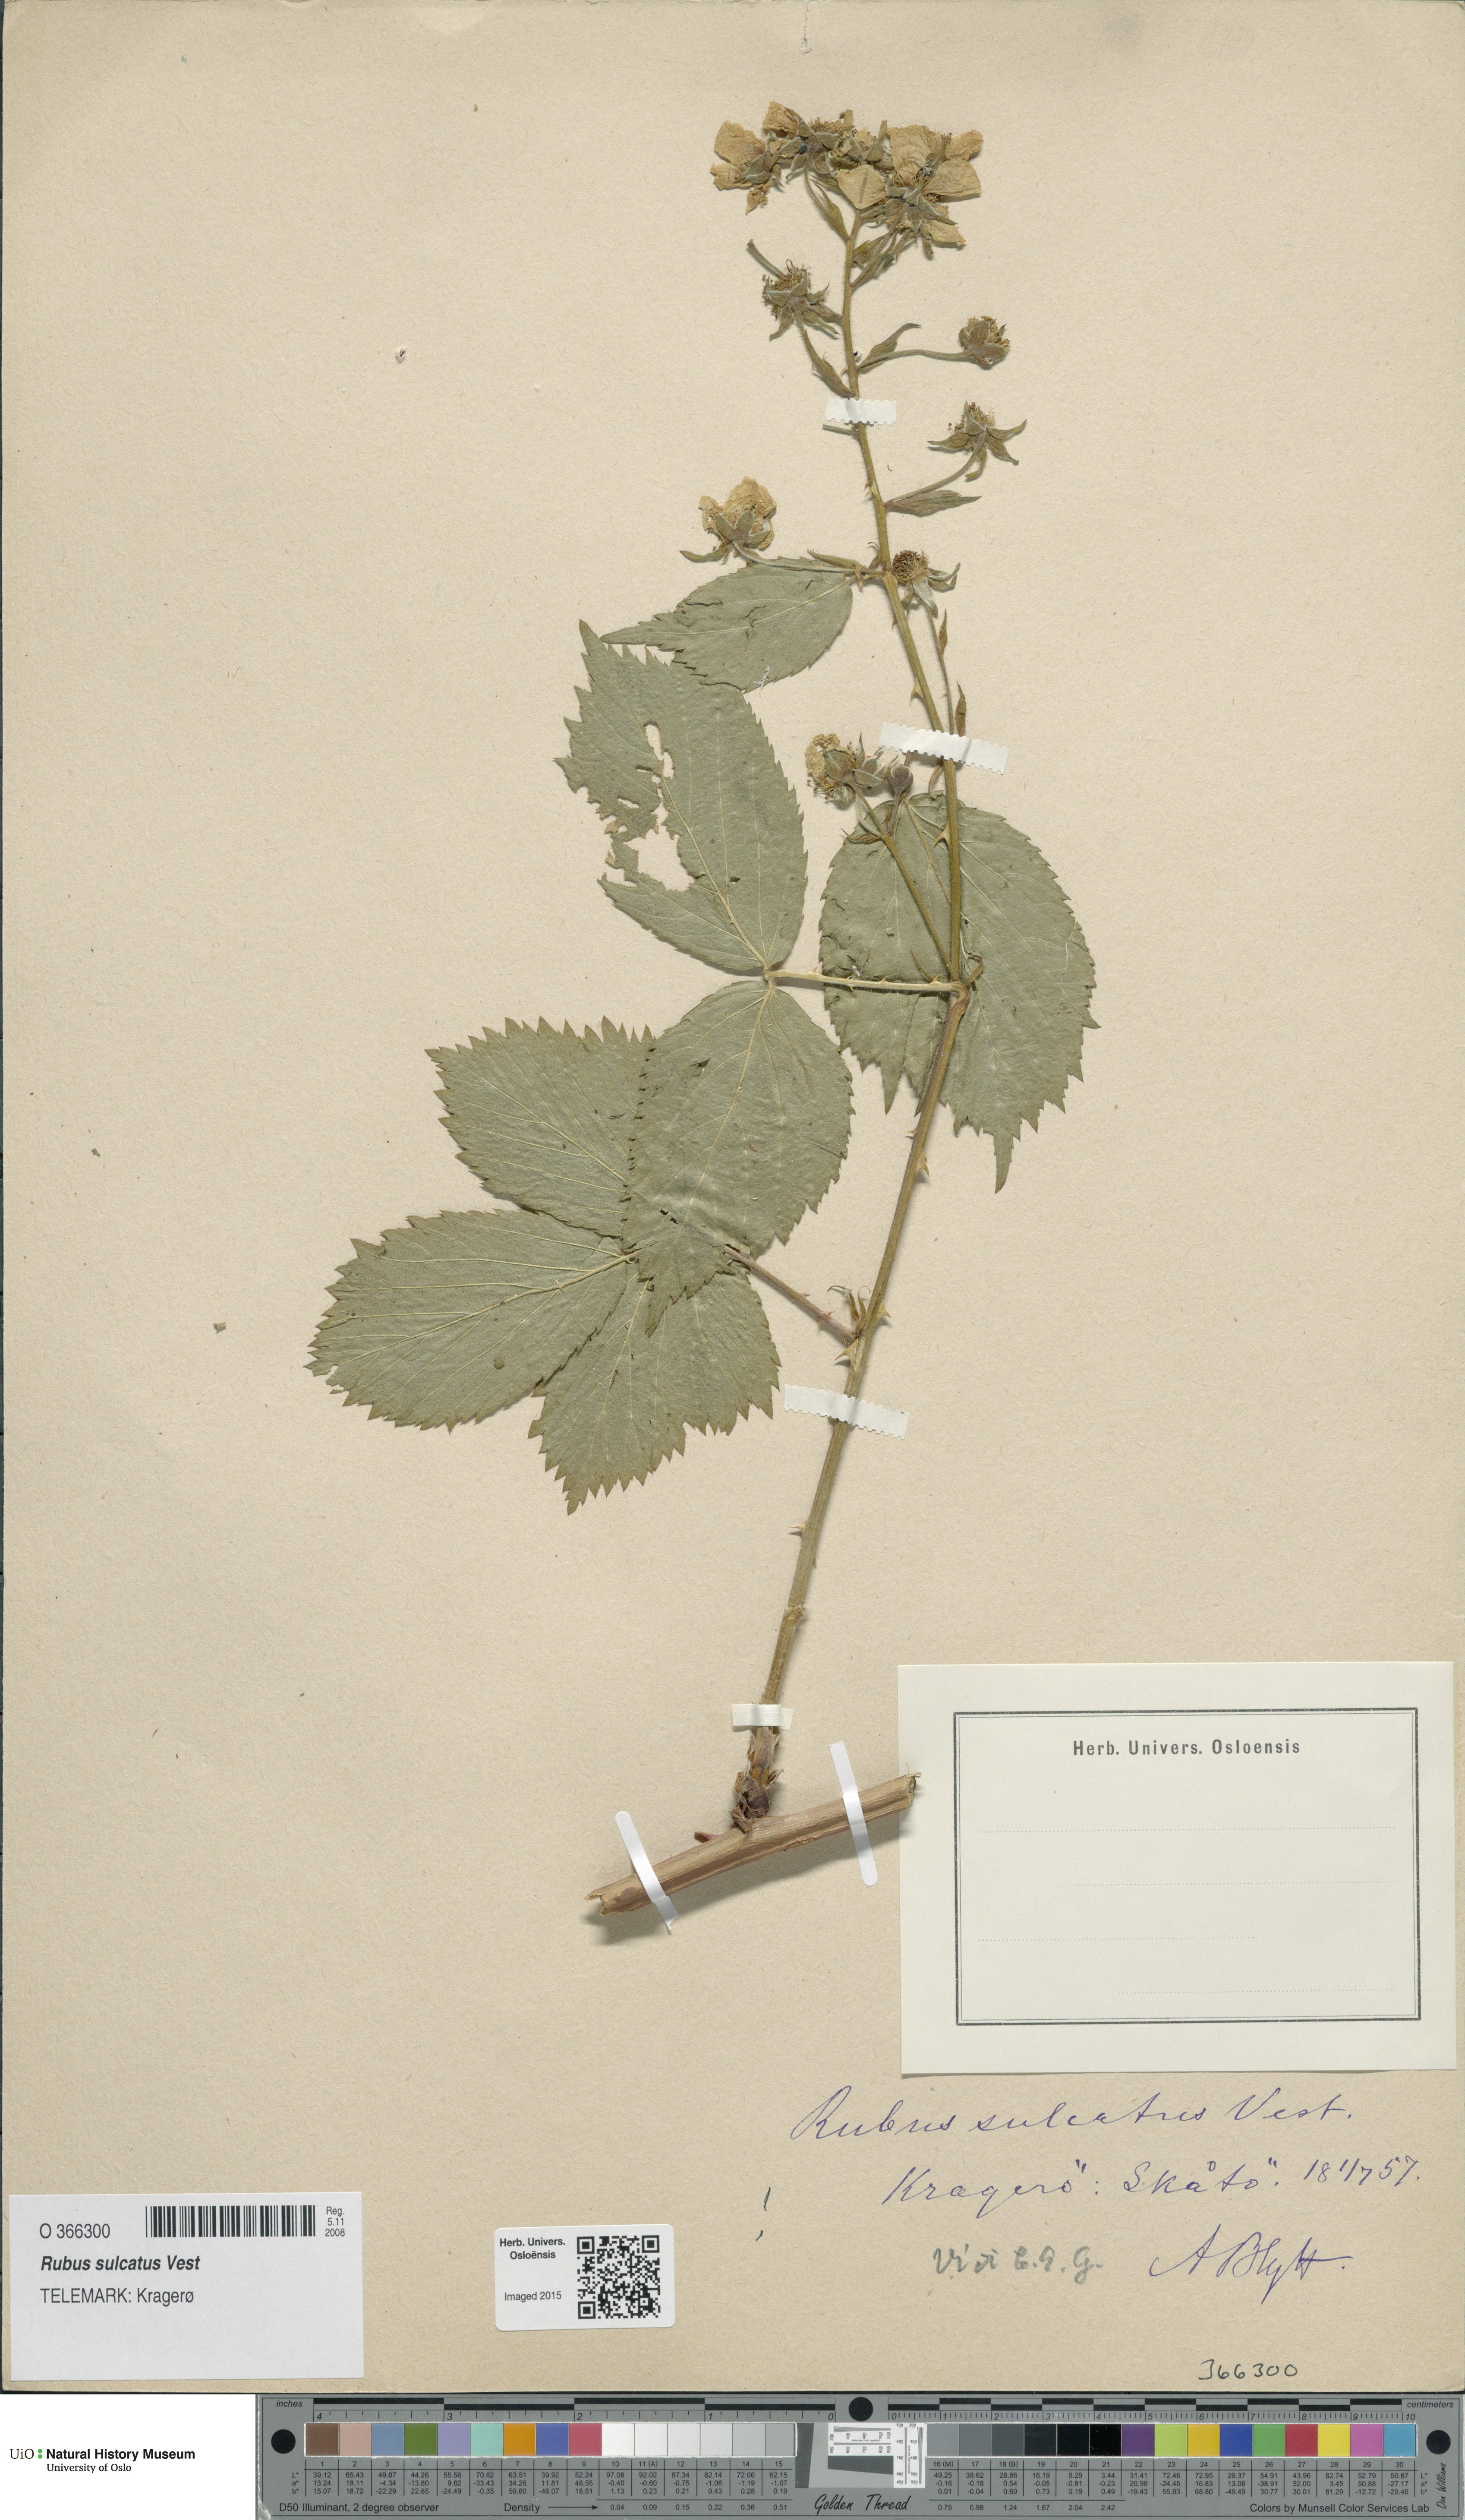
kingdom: Plantae
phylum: Tracheophyta
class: Magnoliopsida
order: Rosales
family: Rosaceae
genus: Rubus
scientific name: Rubus sulcatus
